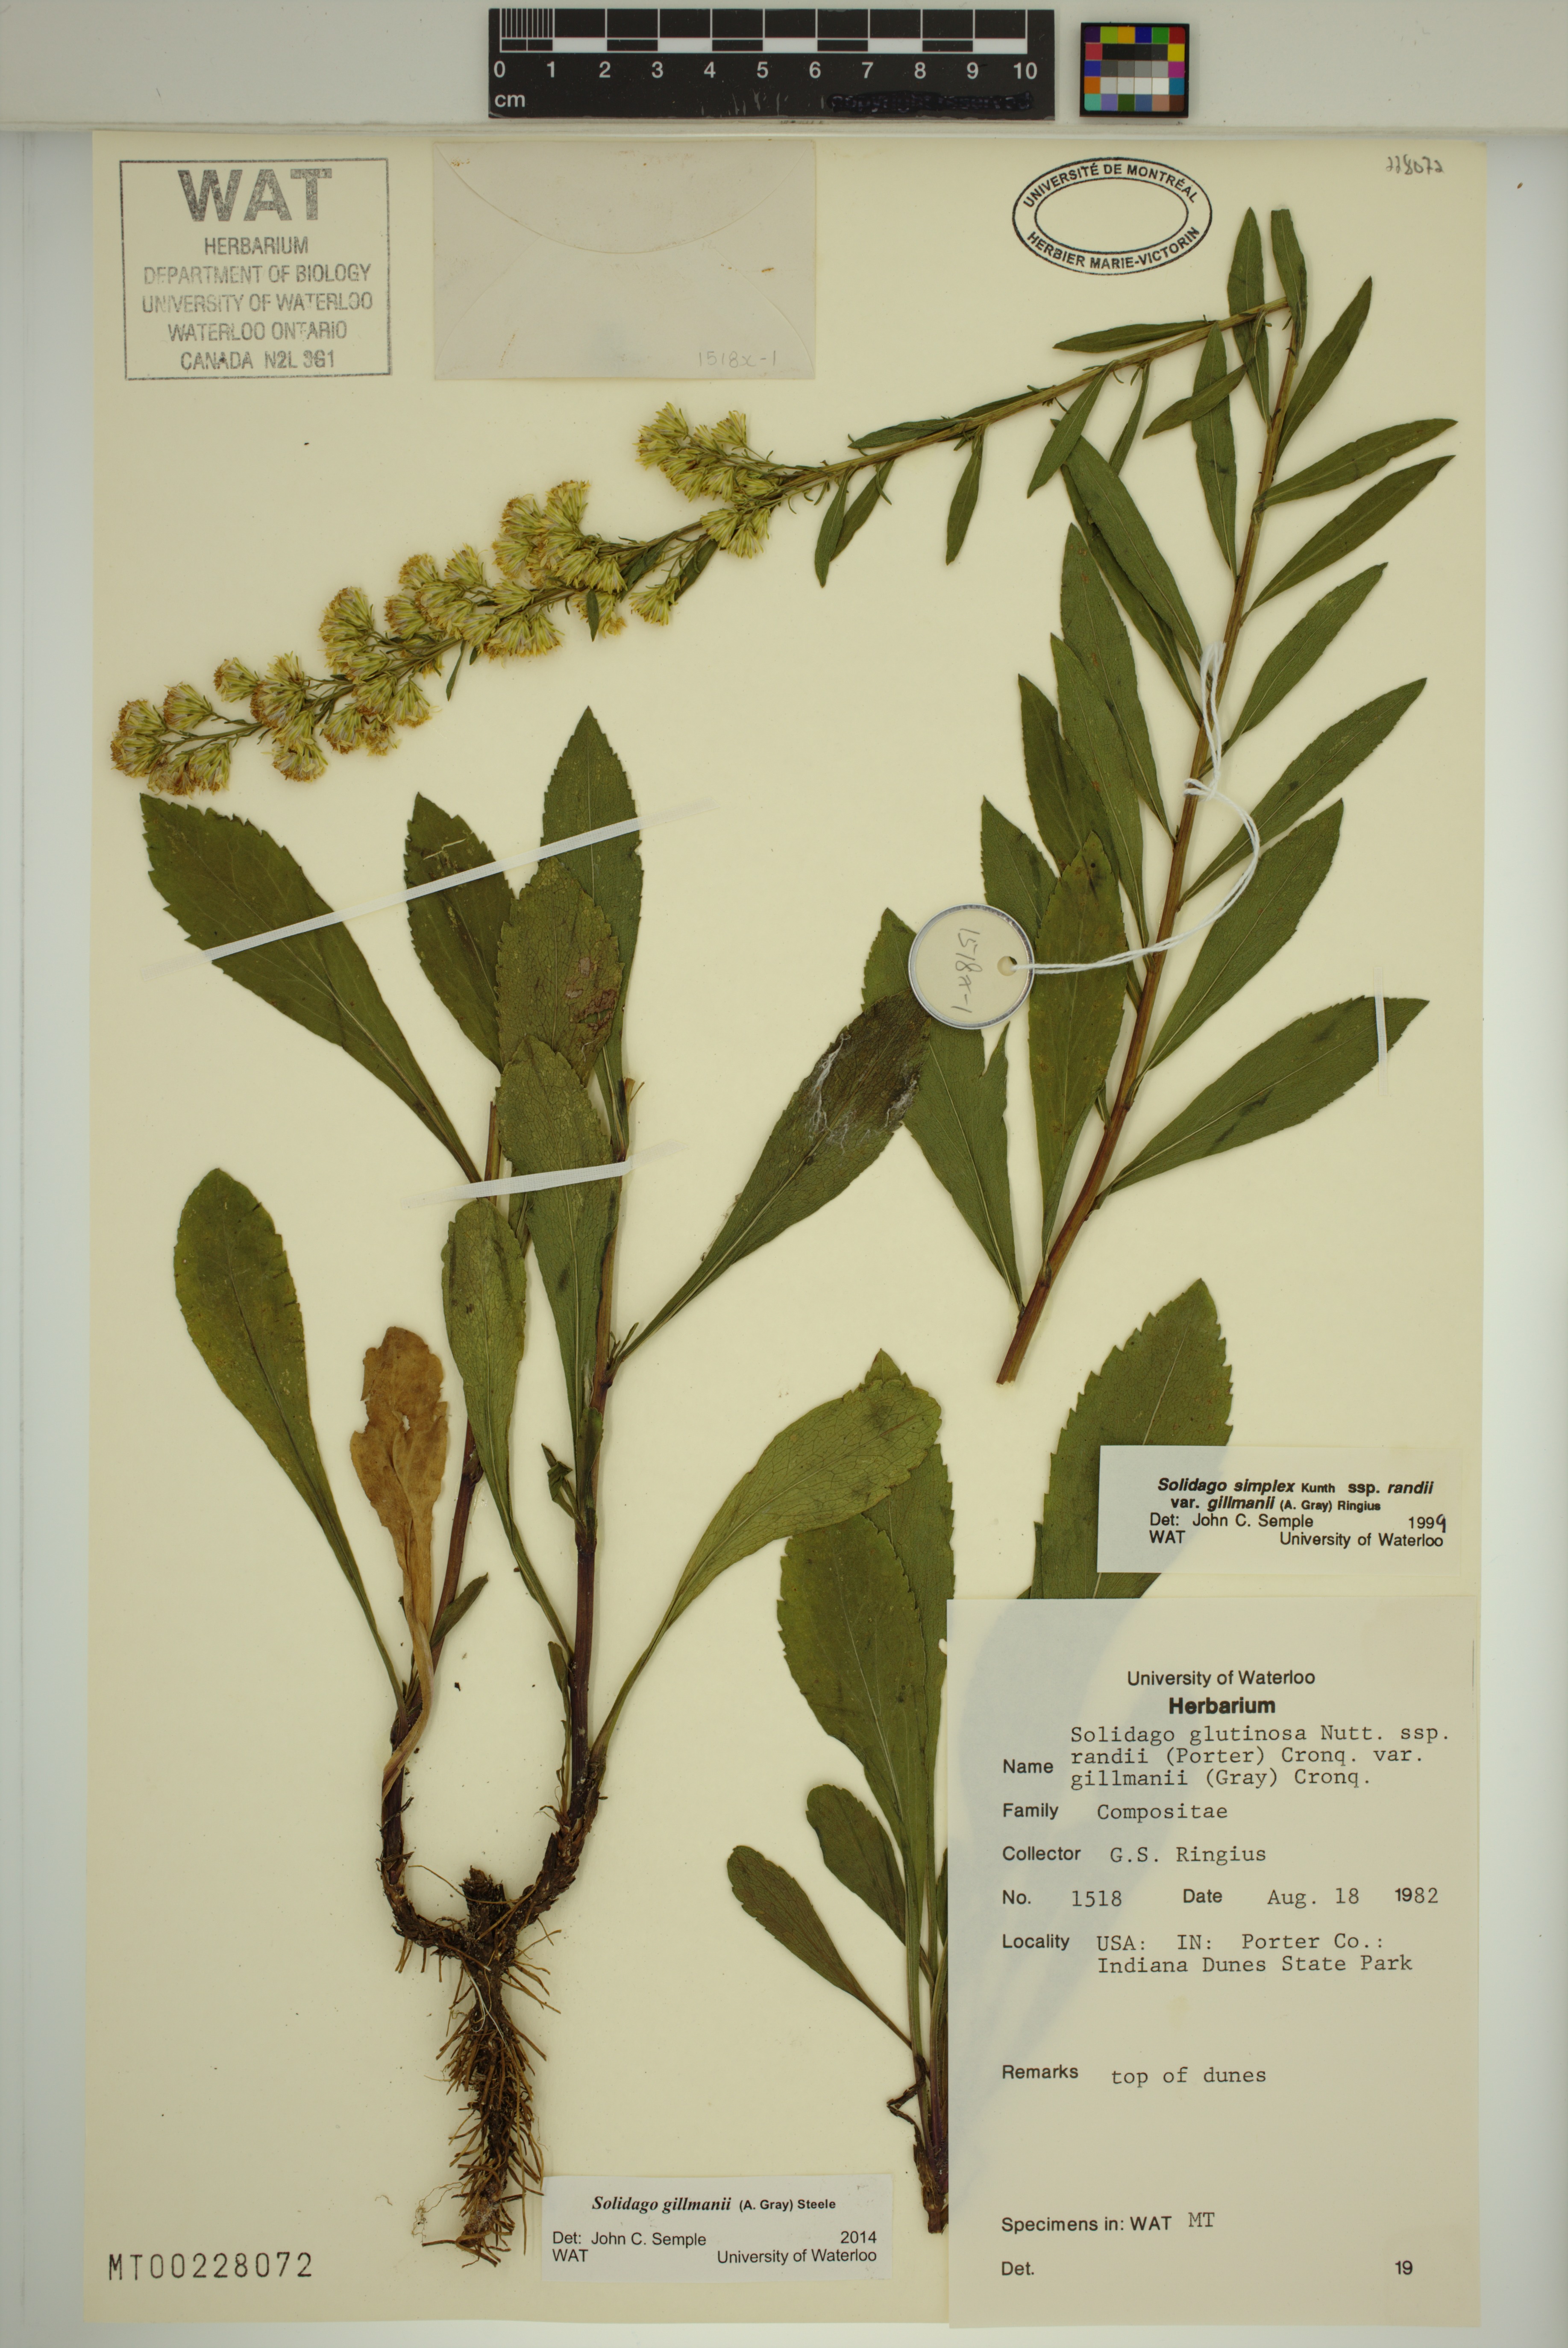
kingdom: Plantae
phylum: Tracheophyta
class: Magnoliopsida
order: Asterales
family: Asteraceae
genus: Solidago
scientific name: Solidago gillmanii
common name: Gillman's goldenrod
